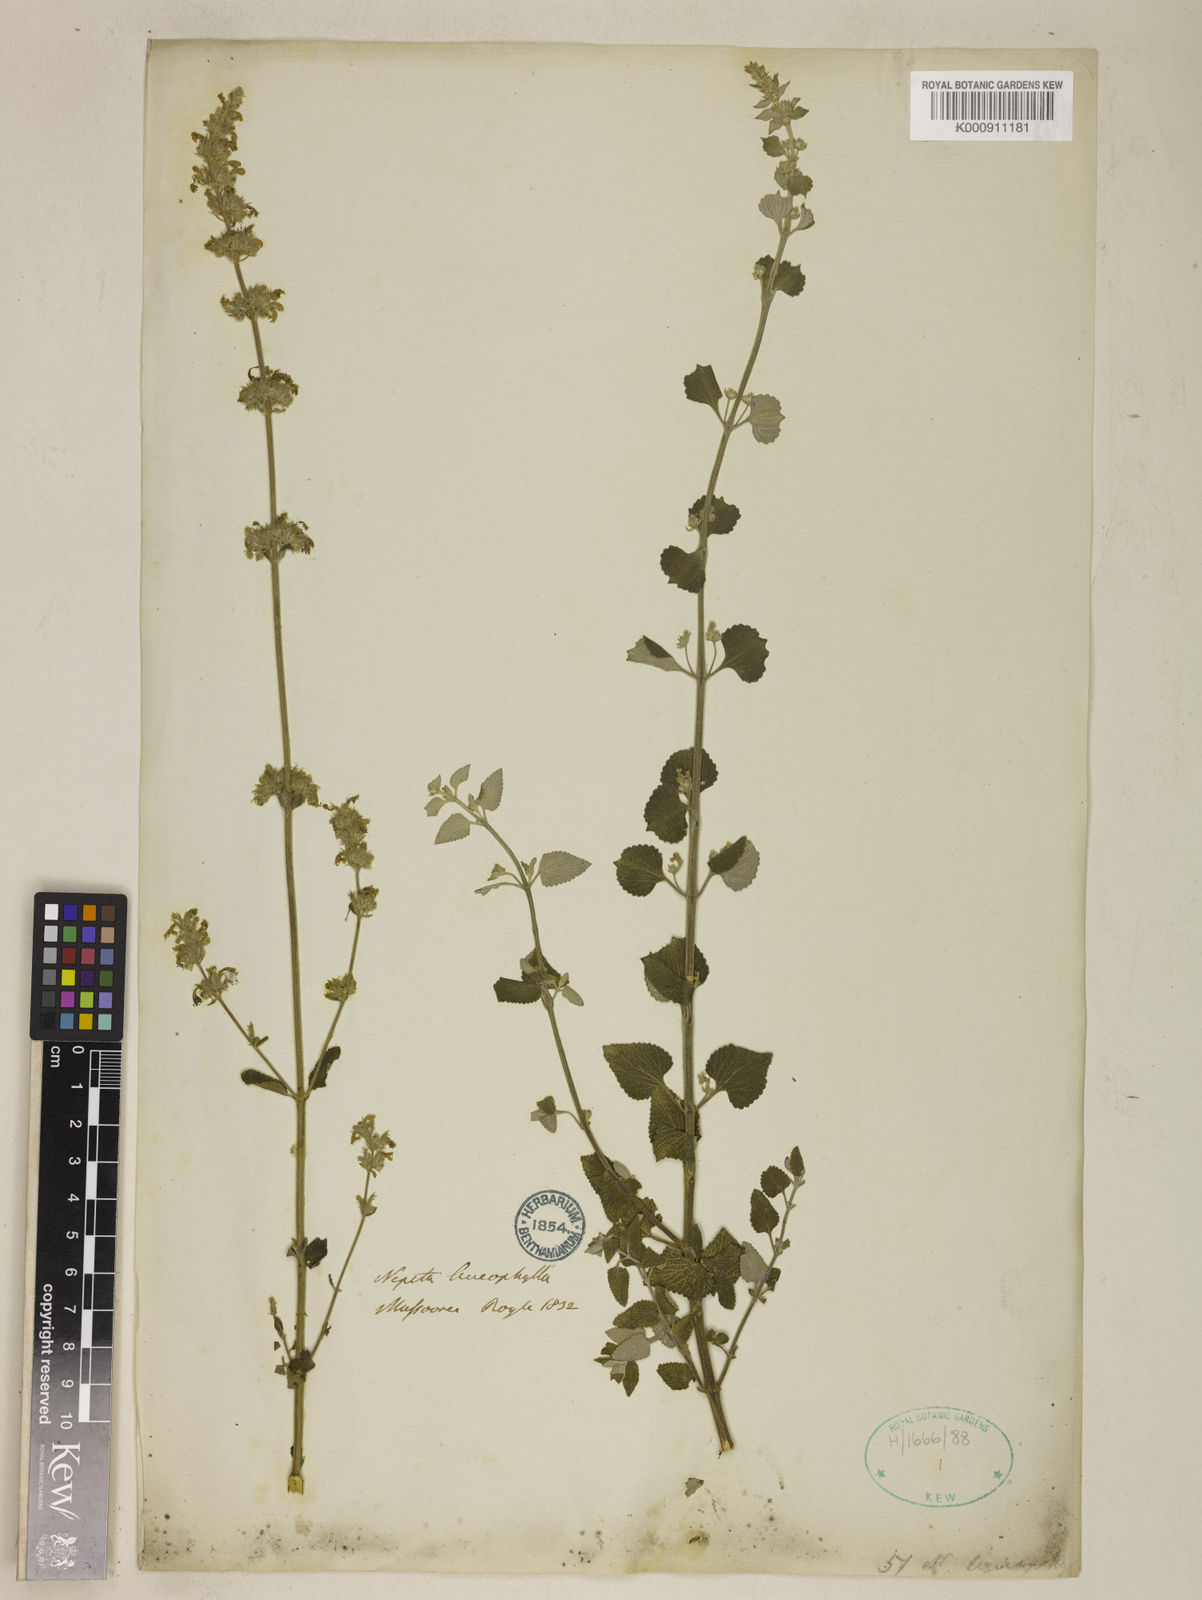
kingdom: Plantae
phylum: Tracheophyta
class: Magnoliopsida
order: Lamiales
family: Lamiaceae
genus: Nepeta
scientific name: Nepeta ciliaris
